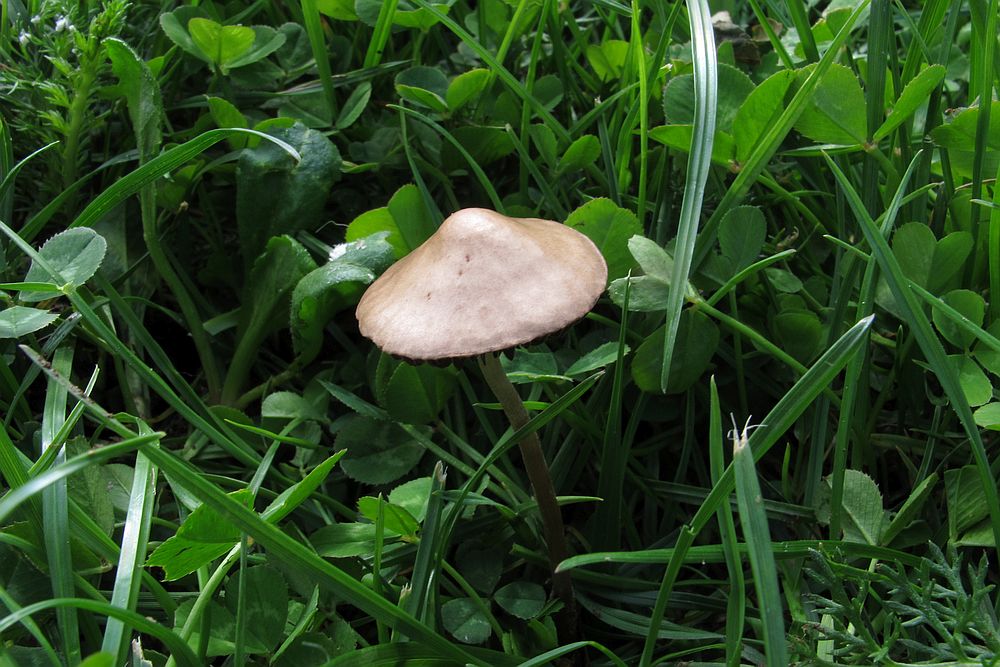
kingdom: Fungi
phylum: Basidiomycota
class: Agaricomycetes
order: Agaricales
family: Bolbitiaceae
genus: Panaeolina
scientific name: Panaeolina foenisecii
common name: høslætsvamp
